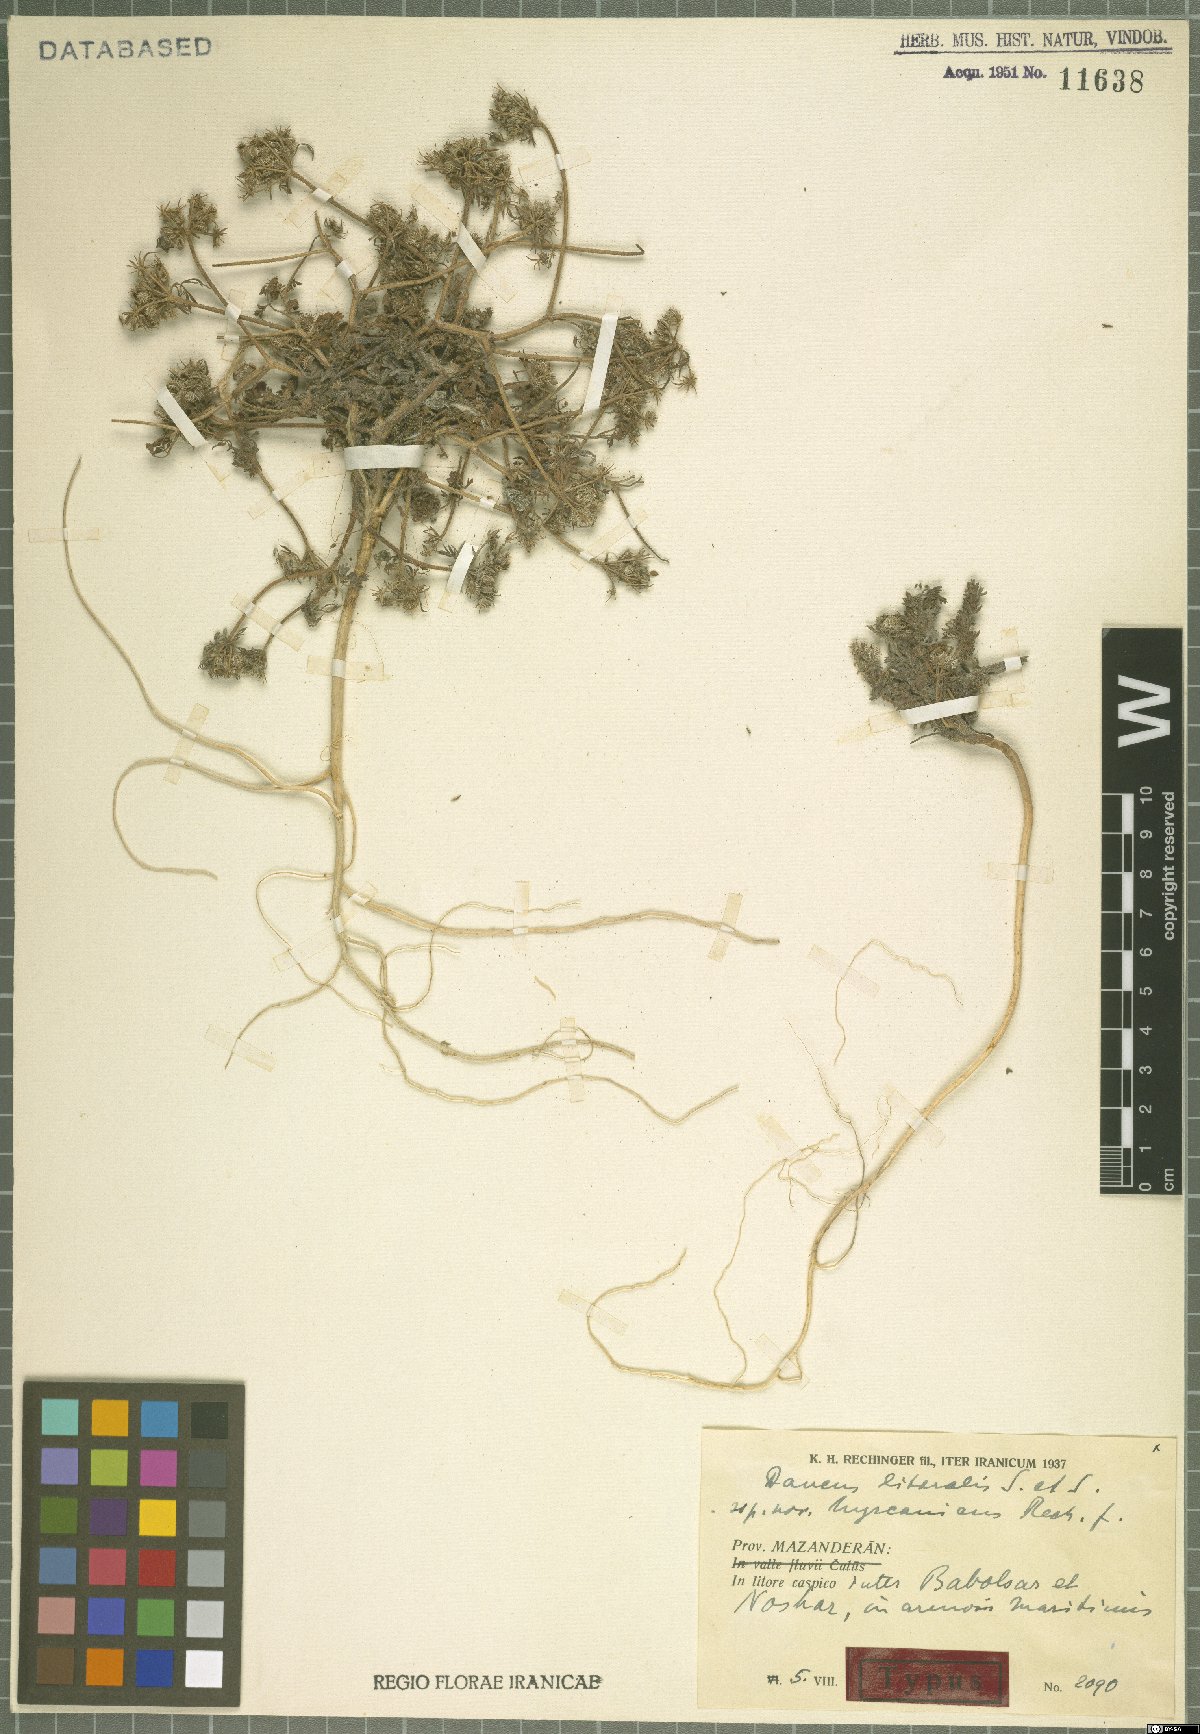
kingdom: Plantae
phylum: Tracheophyta
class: Magnoliopsida
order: Apiales
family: Apiaceae
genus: Daucus
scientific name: Daucus littoralis
